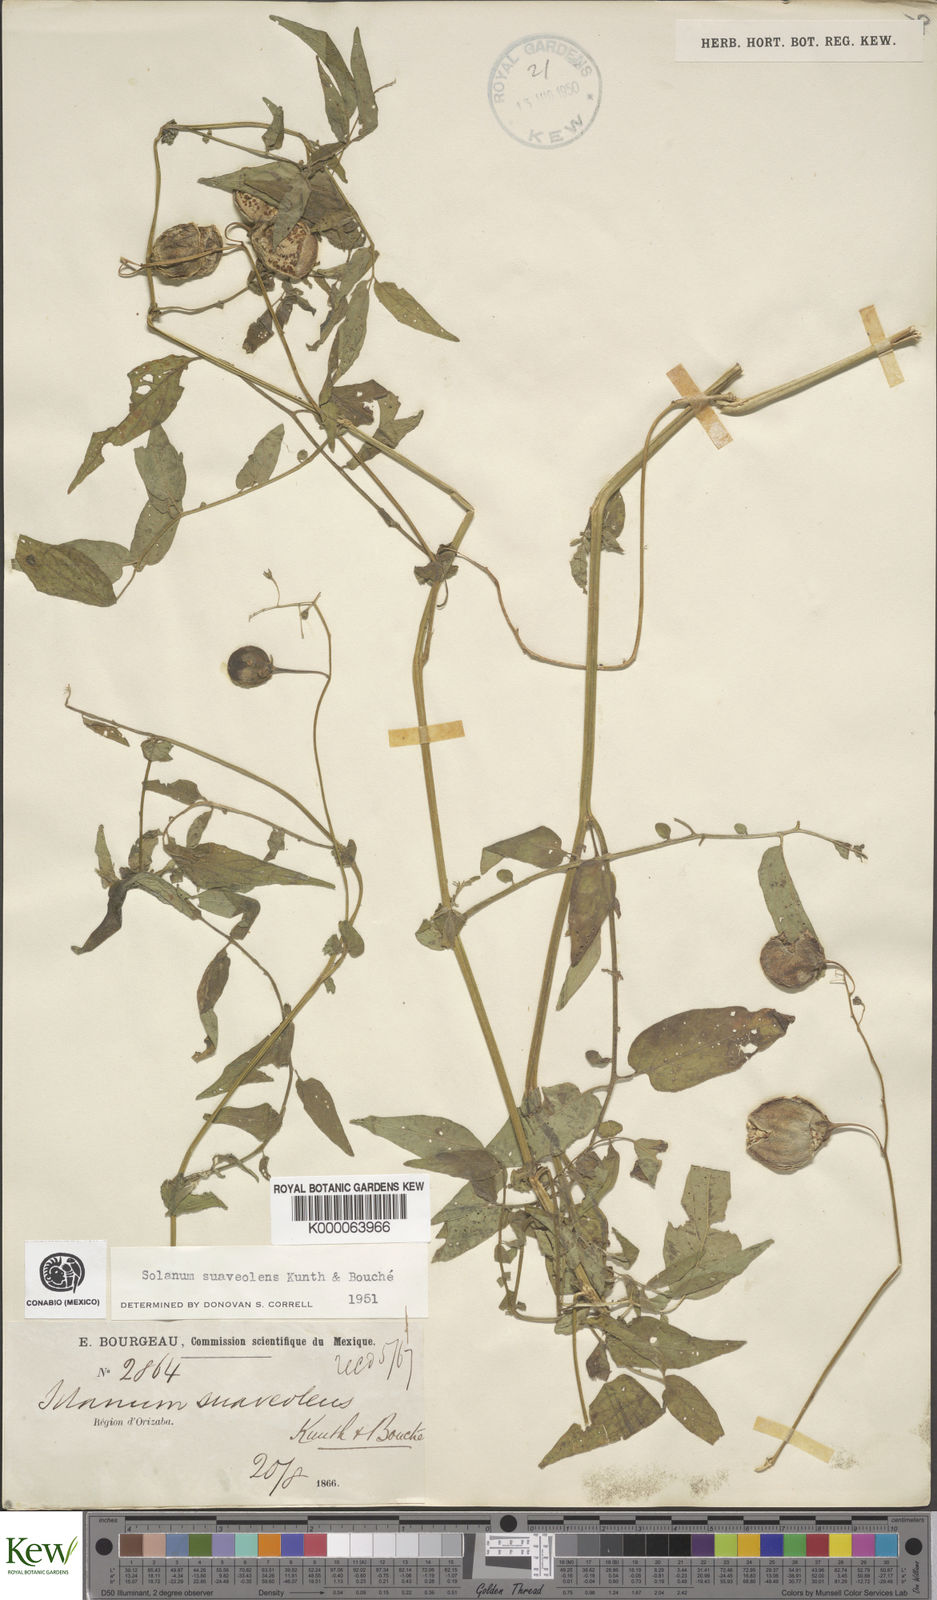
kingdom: Plantae
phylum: Tracheophyta
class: Magnoliopsida
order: Solanales
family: Solanaceae
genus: Solanum
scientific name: Solanum
